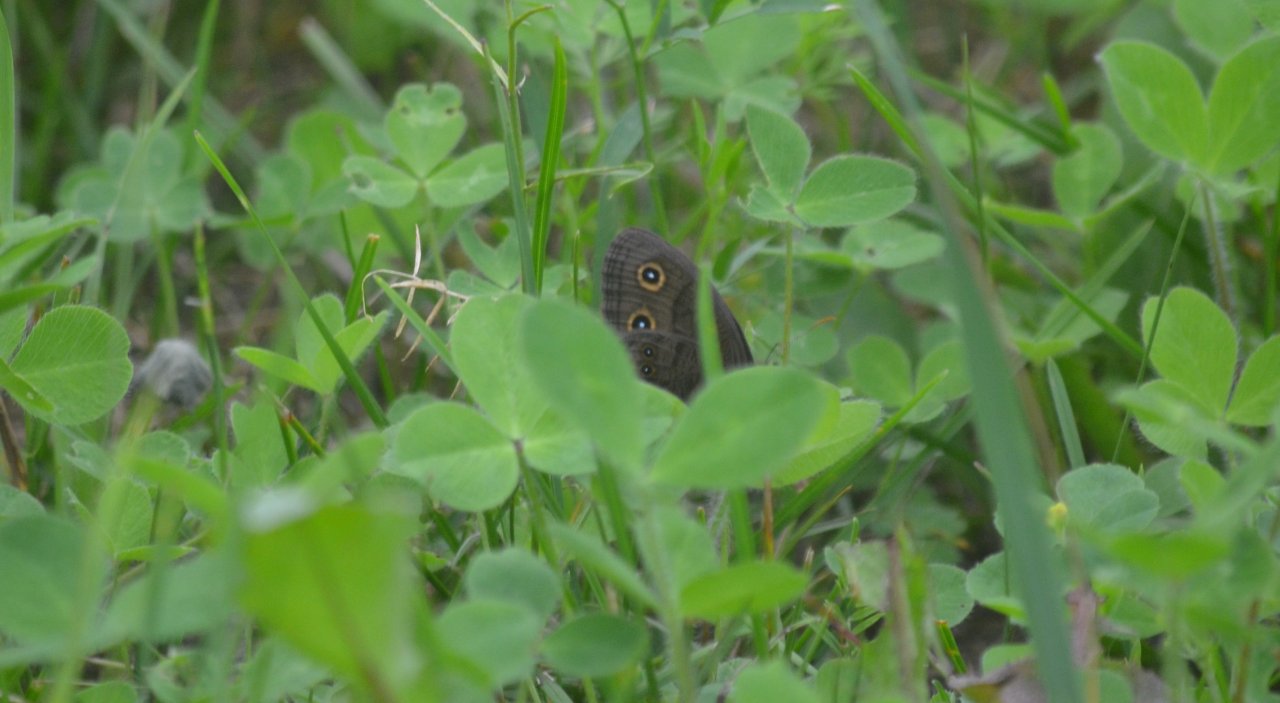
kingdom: Animalia
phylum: Arthropoda
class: Insecta
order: Lepidoptera
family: Nymphalidae
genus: Cercyonis
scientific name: Cercyonis pegala
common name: Common Wood-Nymph
